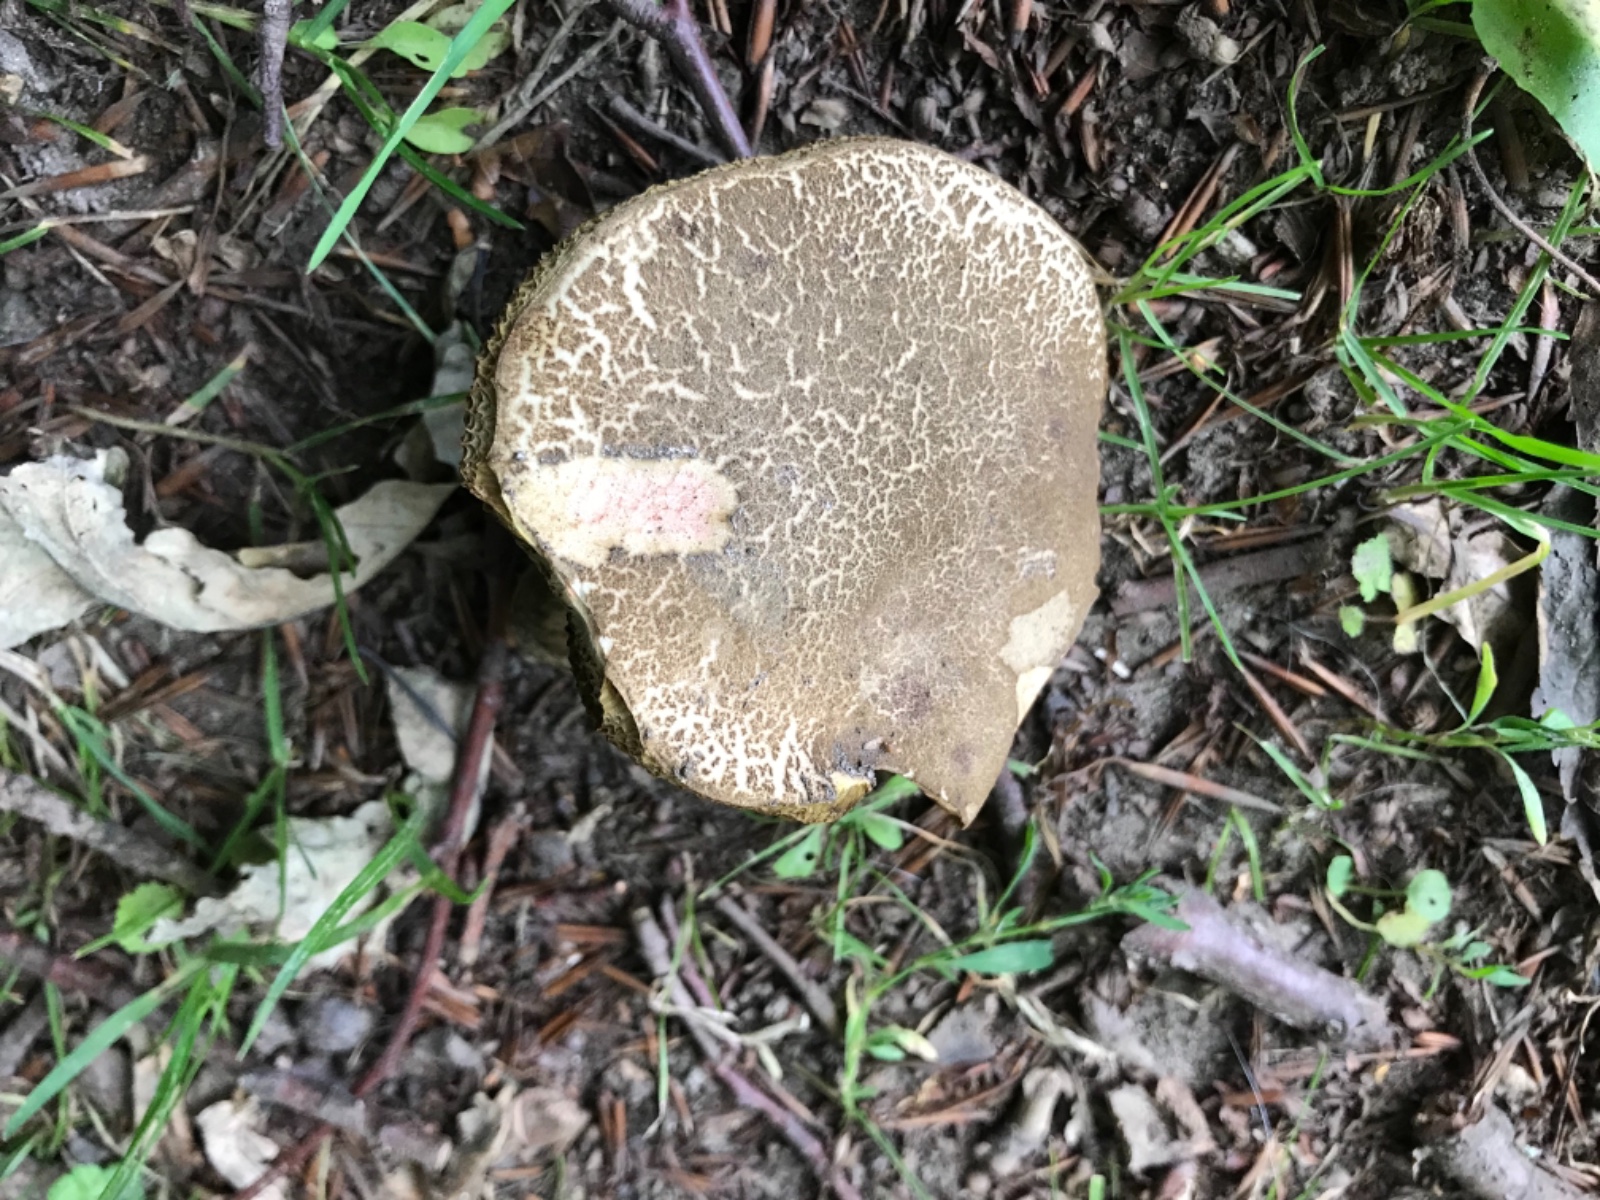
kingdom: Fungi
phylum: Basidiomycota
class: Agaricomycetes
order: Boletales
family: Boletaceae
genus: Xerocomellus
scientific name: Xerocomellus chrysenteron
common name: rødsprukken rørhat
